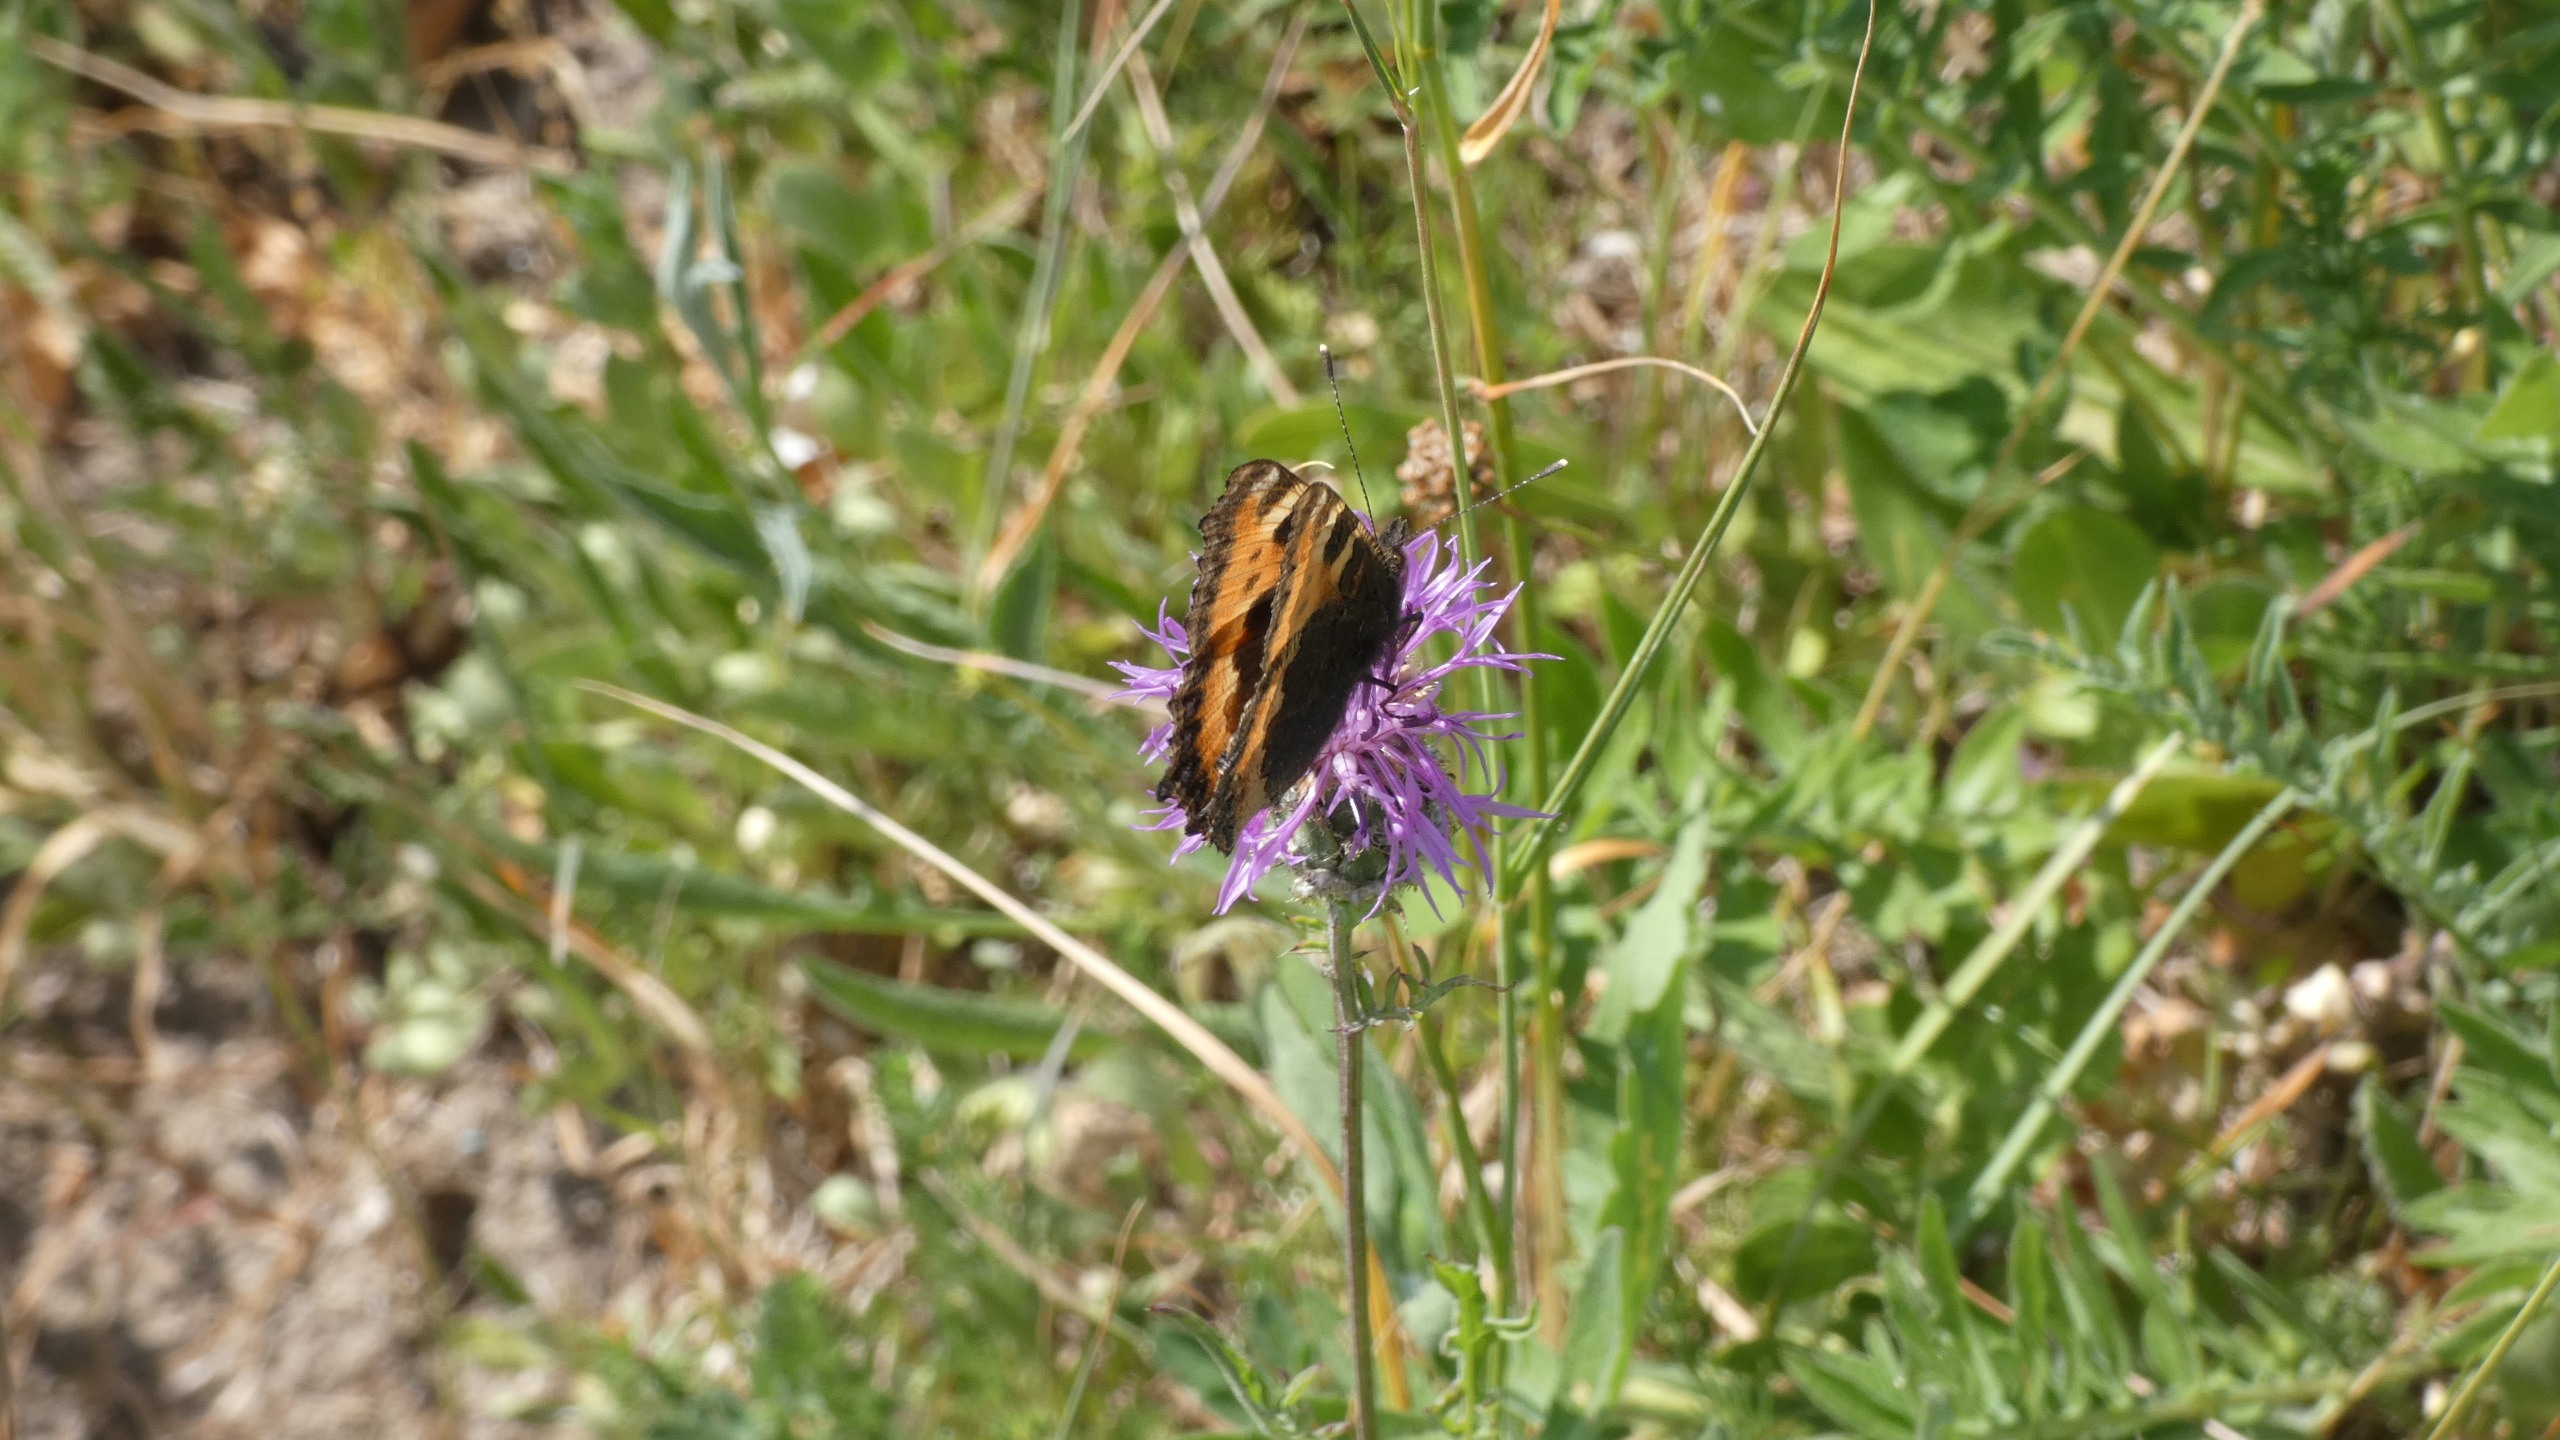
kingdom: Animalia
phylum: Arthropoda
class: Insecta
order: Lepidoptera
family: Nymphalidae
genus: Aglais
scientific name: Aglais urticae
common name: Nældens takvinge
